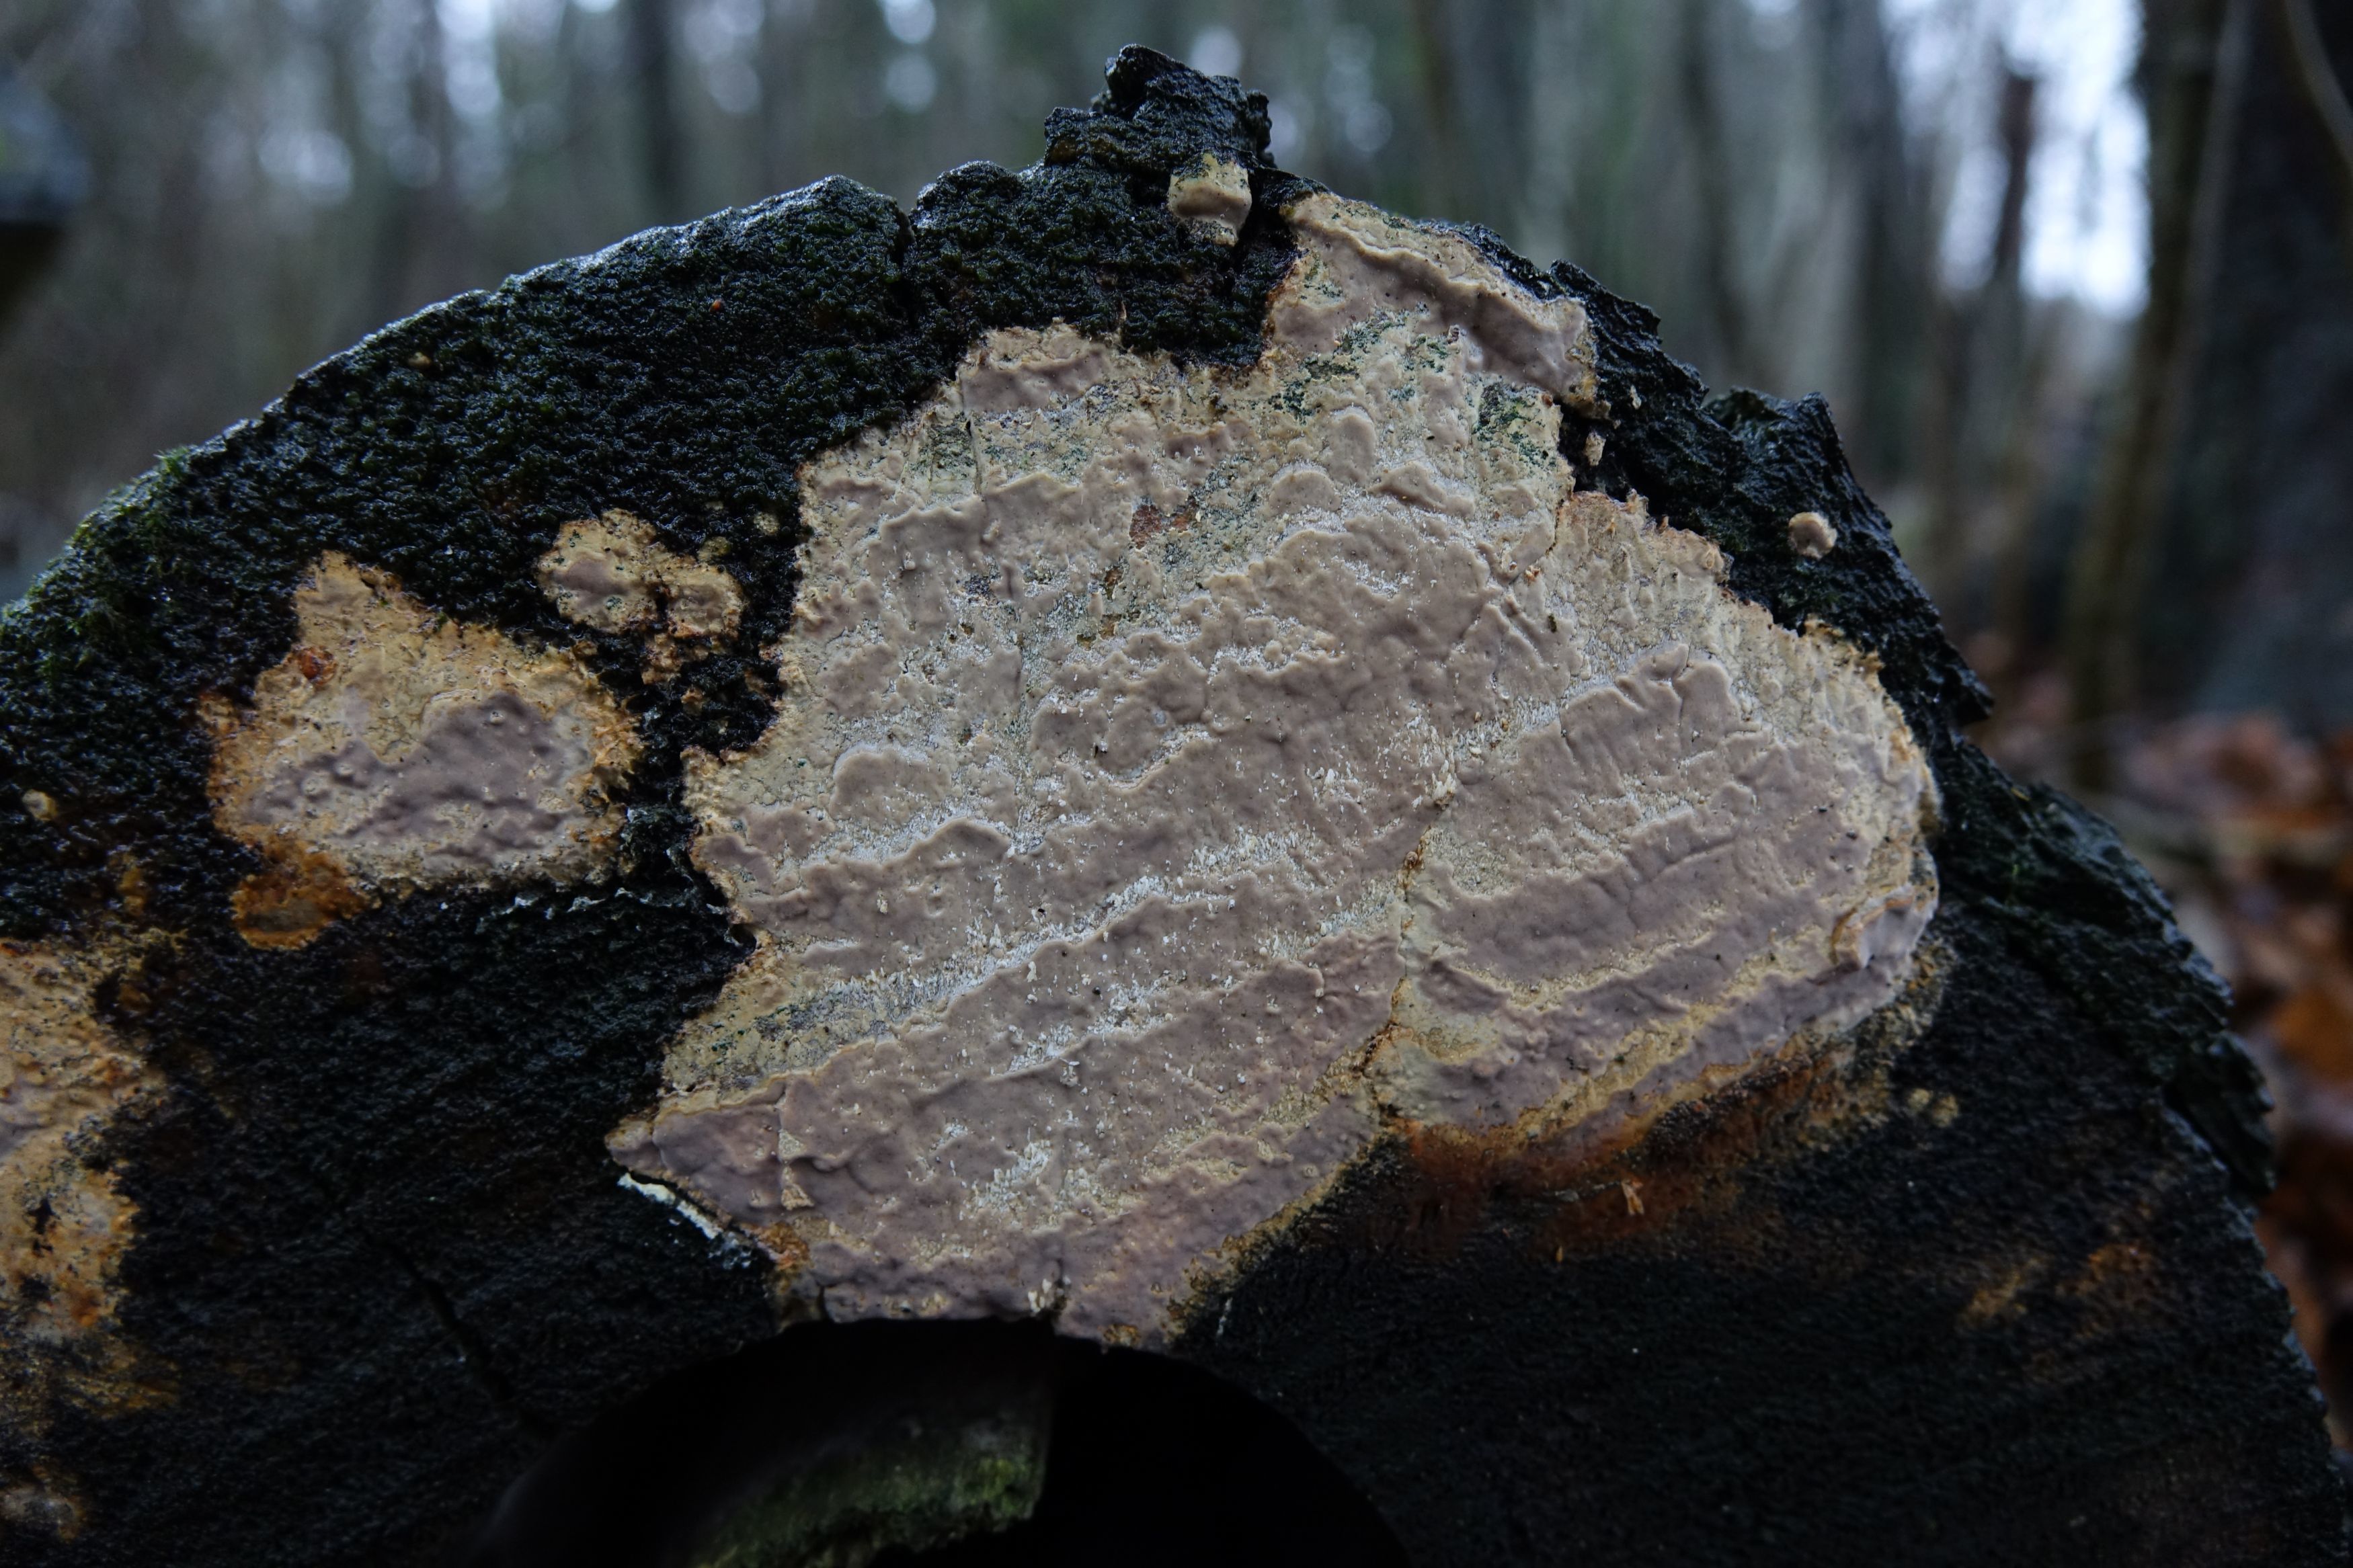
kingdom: Fungi
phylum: Basidiomycota
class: Agaricomycetes
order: Russulales
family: Peniophoraceae
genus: Scytinostroma
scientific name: Scytinostroma portentosum
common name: Mothball crust
